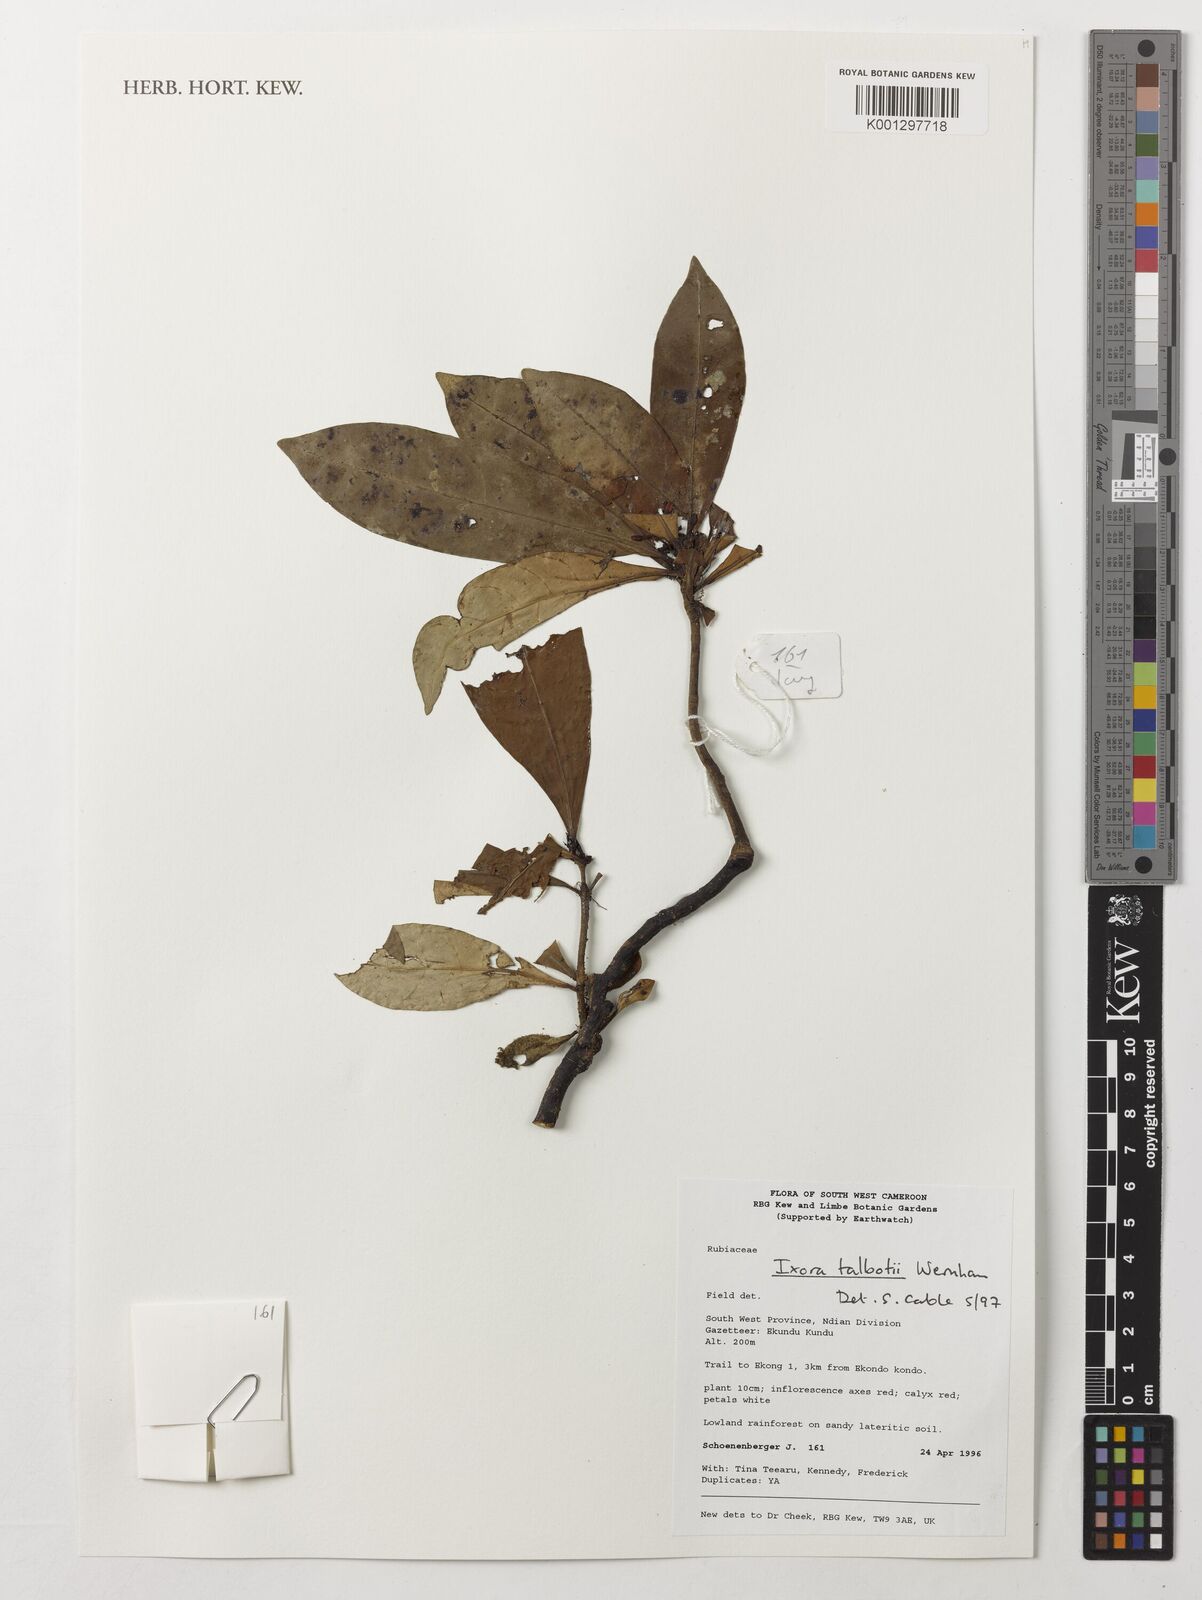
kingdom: Plantae
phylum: Tracheophyta
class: Magnoliopsida
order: Gentianales
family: Rubiaceae
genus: Ixora
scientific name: Ixora guineensis
